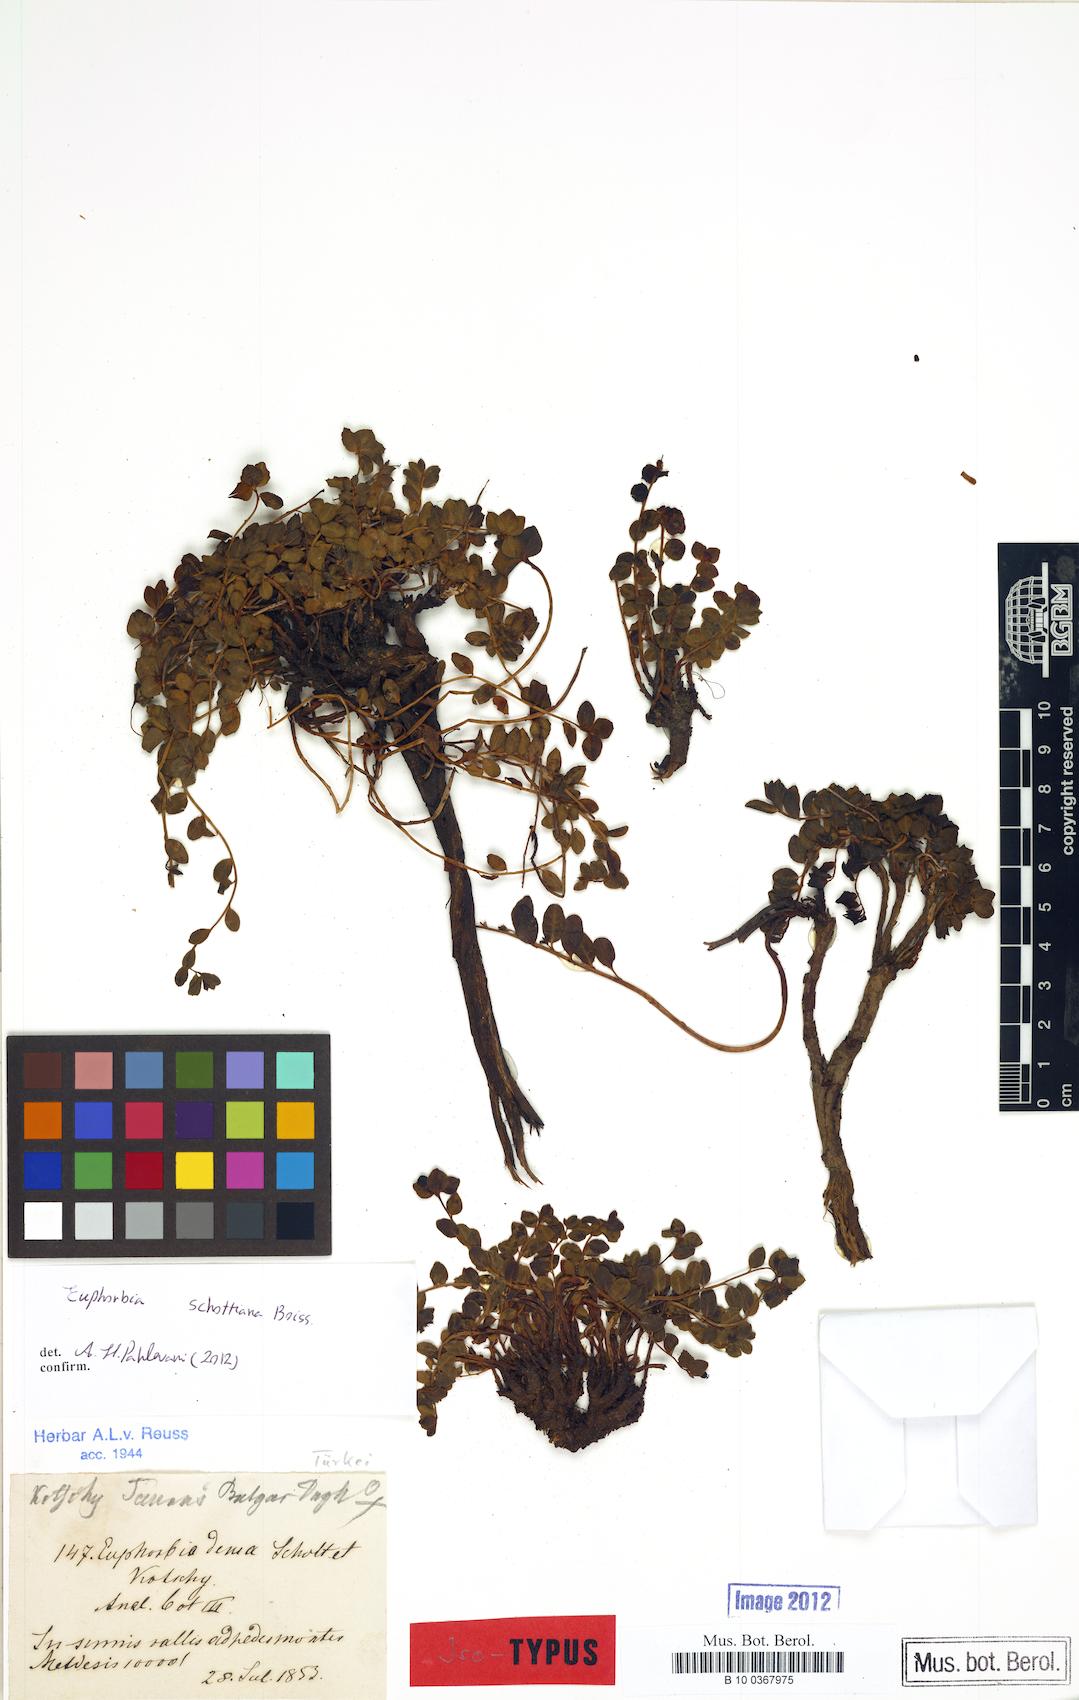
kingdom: Plantae
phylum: Tracheophyta
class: Magnoliopsida
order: Malpighiales
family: Euphorbiaceae
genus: Euphorbia
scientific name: Euphorbia schottiana
